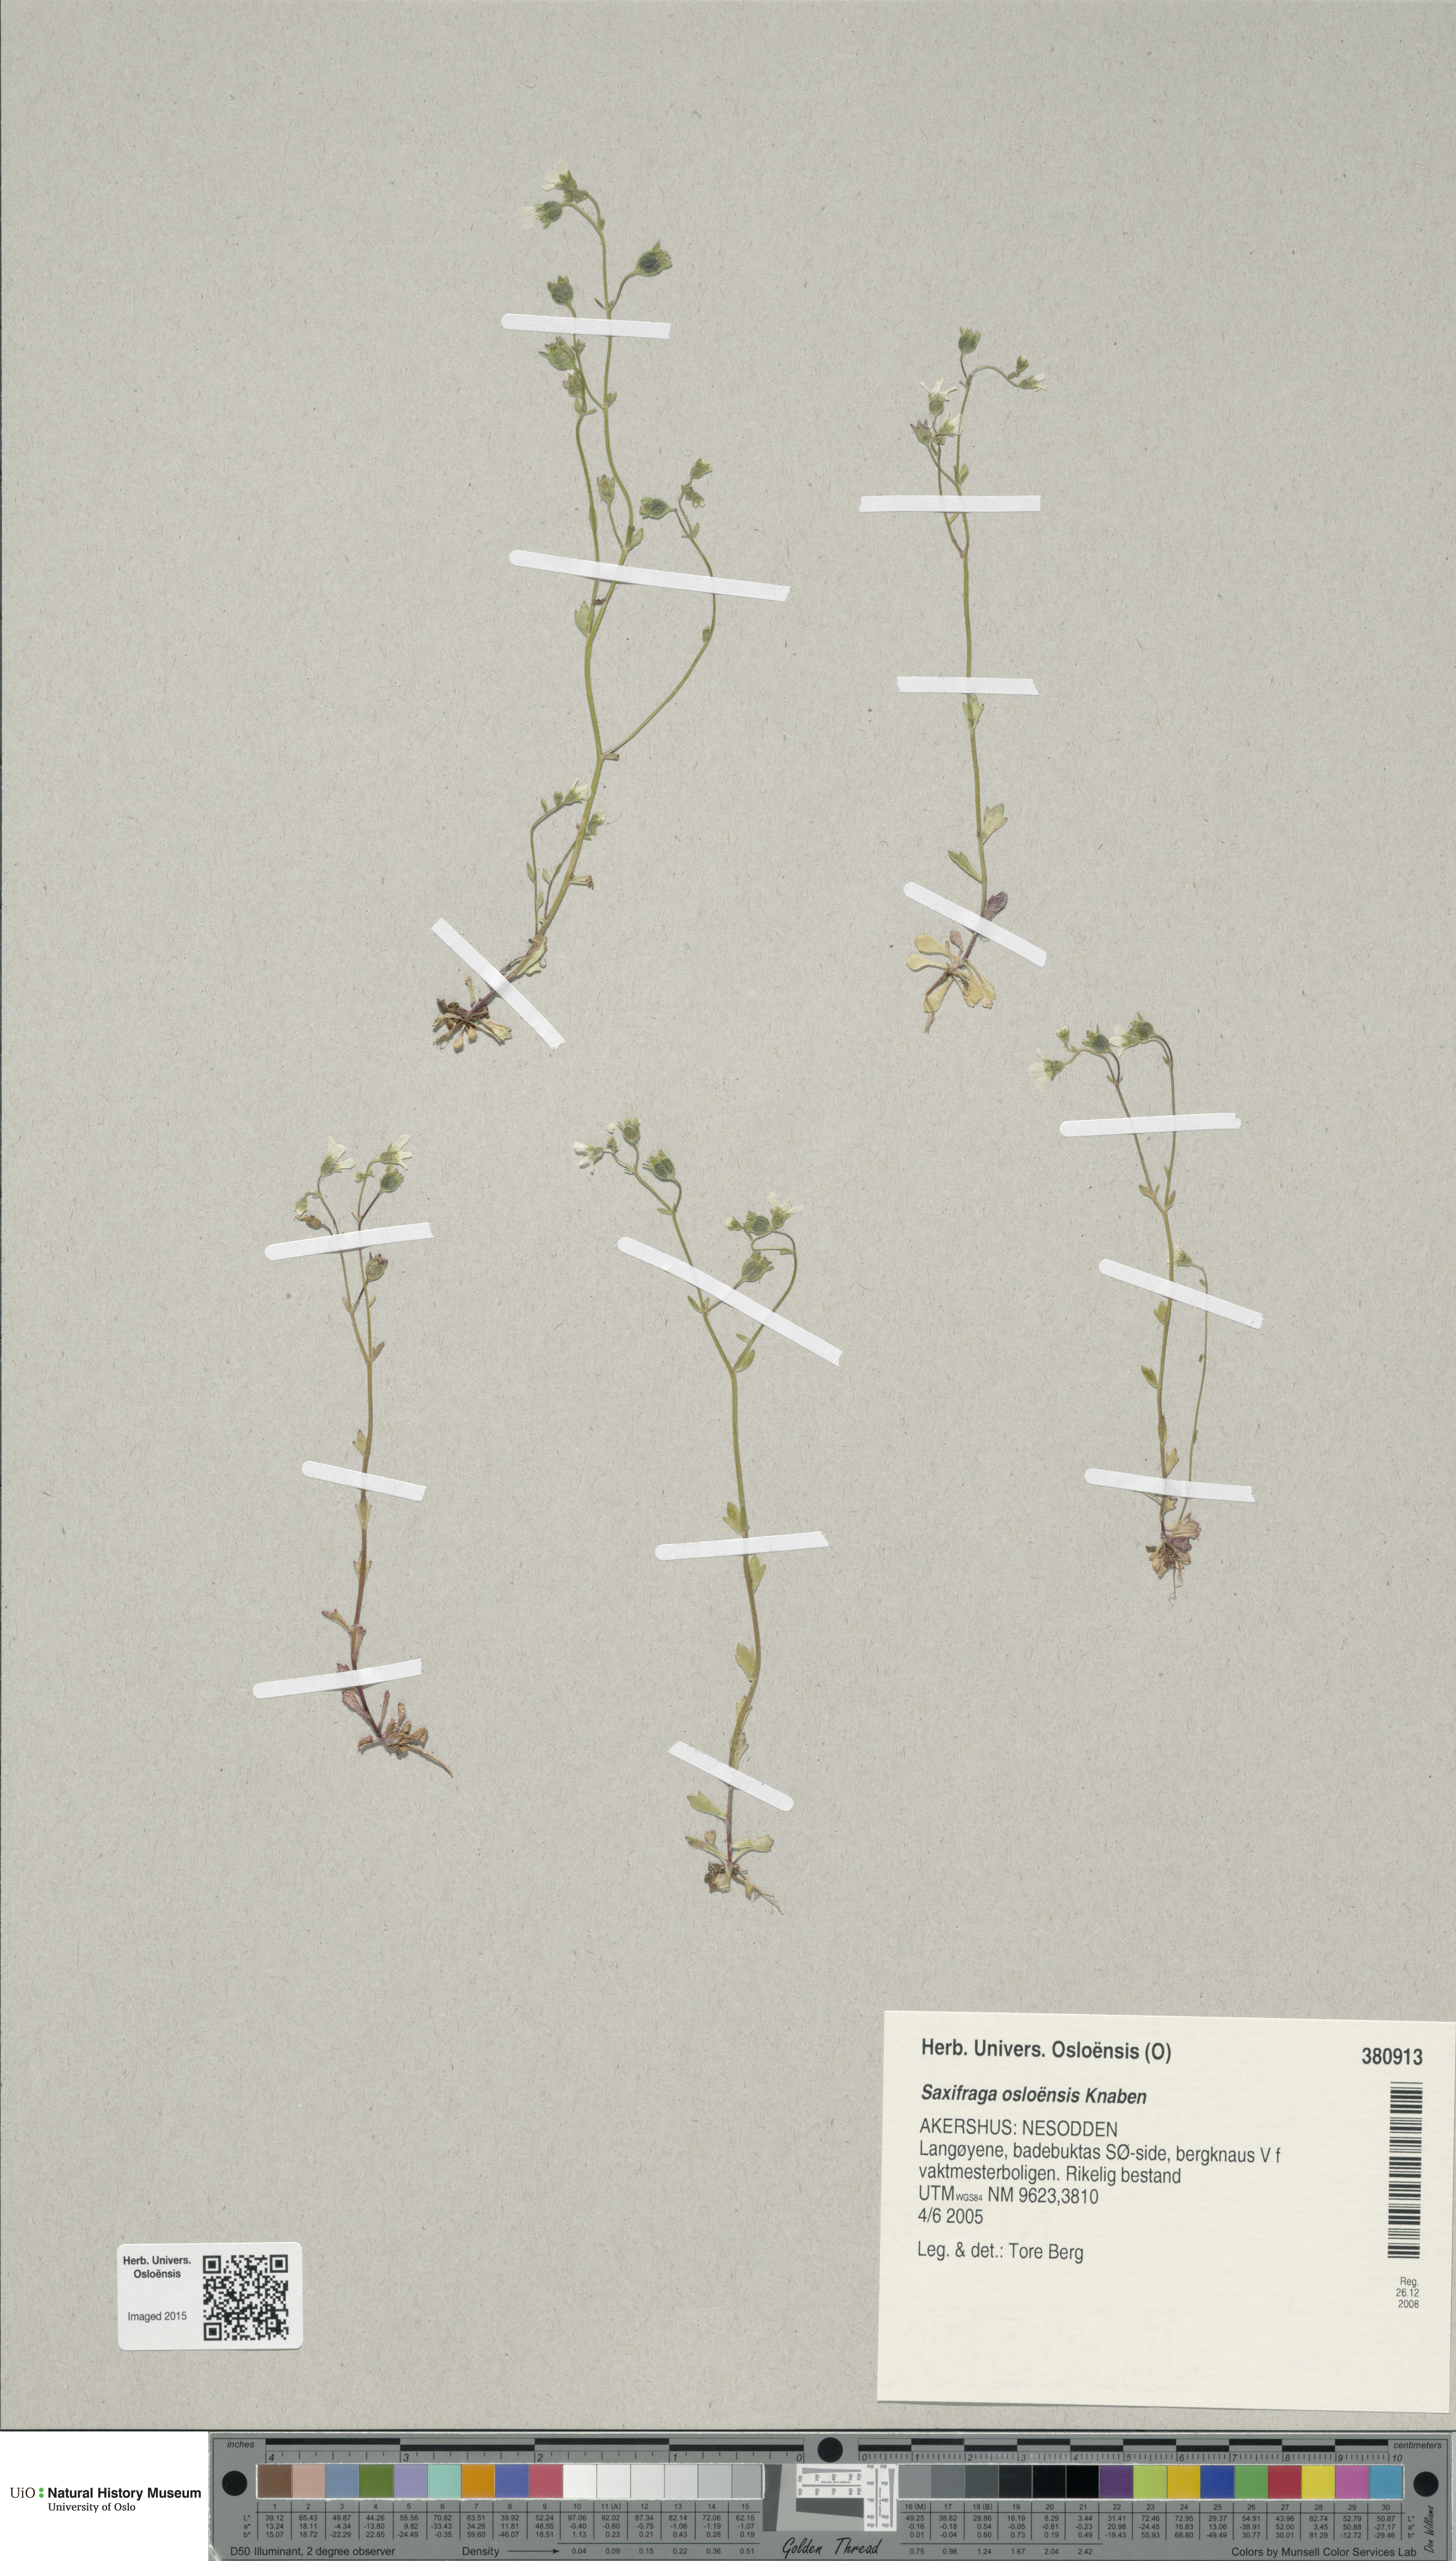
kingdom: Plantae
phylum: Tracheophyta
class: Magnoliopsida
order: Saxifragales
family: Saxifragaceae
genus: Saxifraga
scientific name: Saxifraga osloensis
